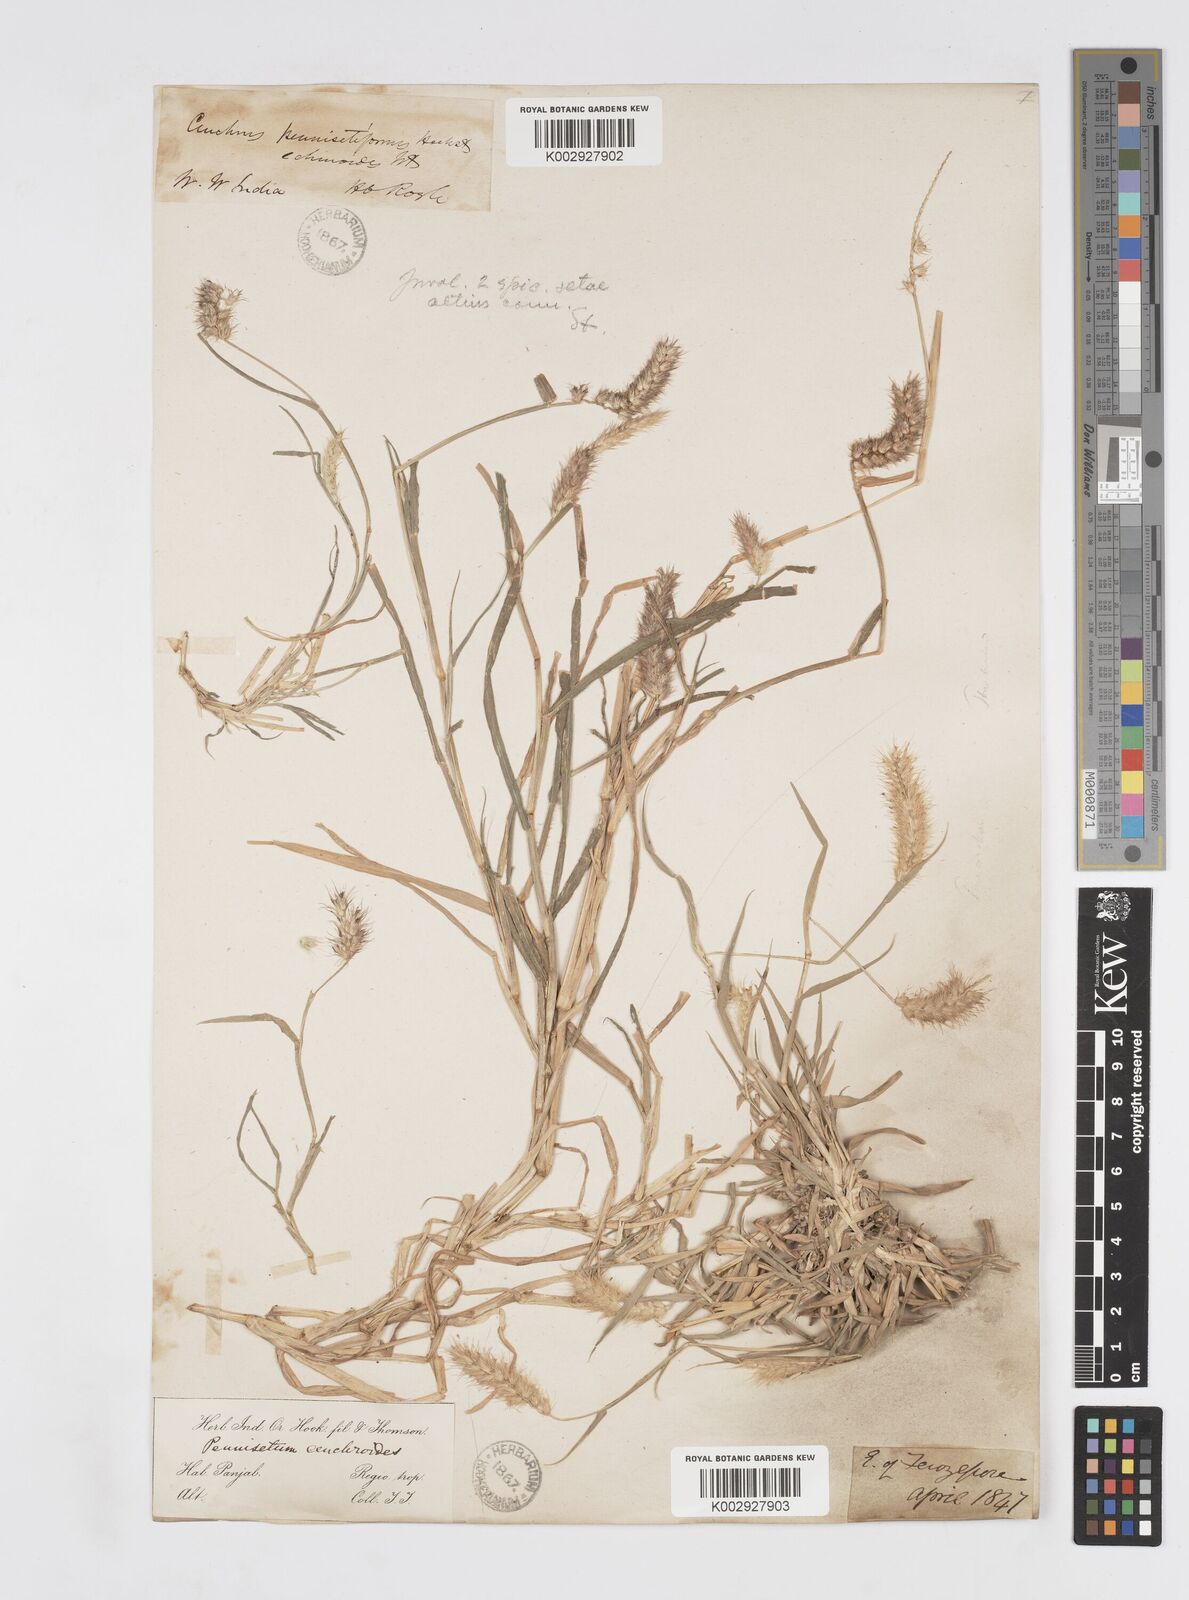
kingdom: Plantae
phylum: Tracheophyta
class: Liliopsida
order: Poales
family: Poaceae
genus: Cenchrus
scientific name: Cenchrus pennisetiformis
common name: Cloncurry
